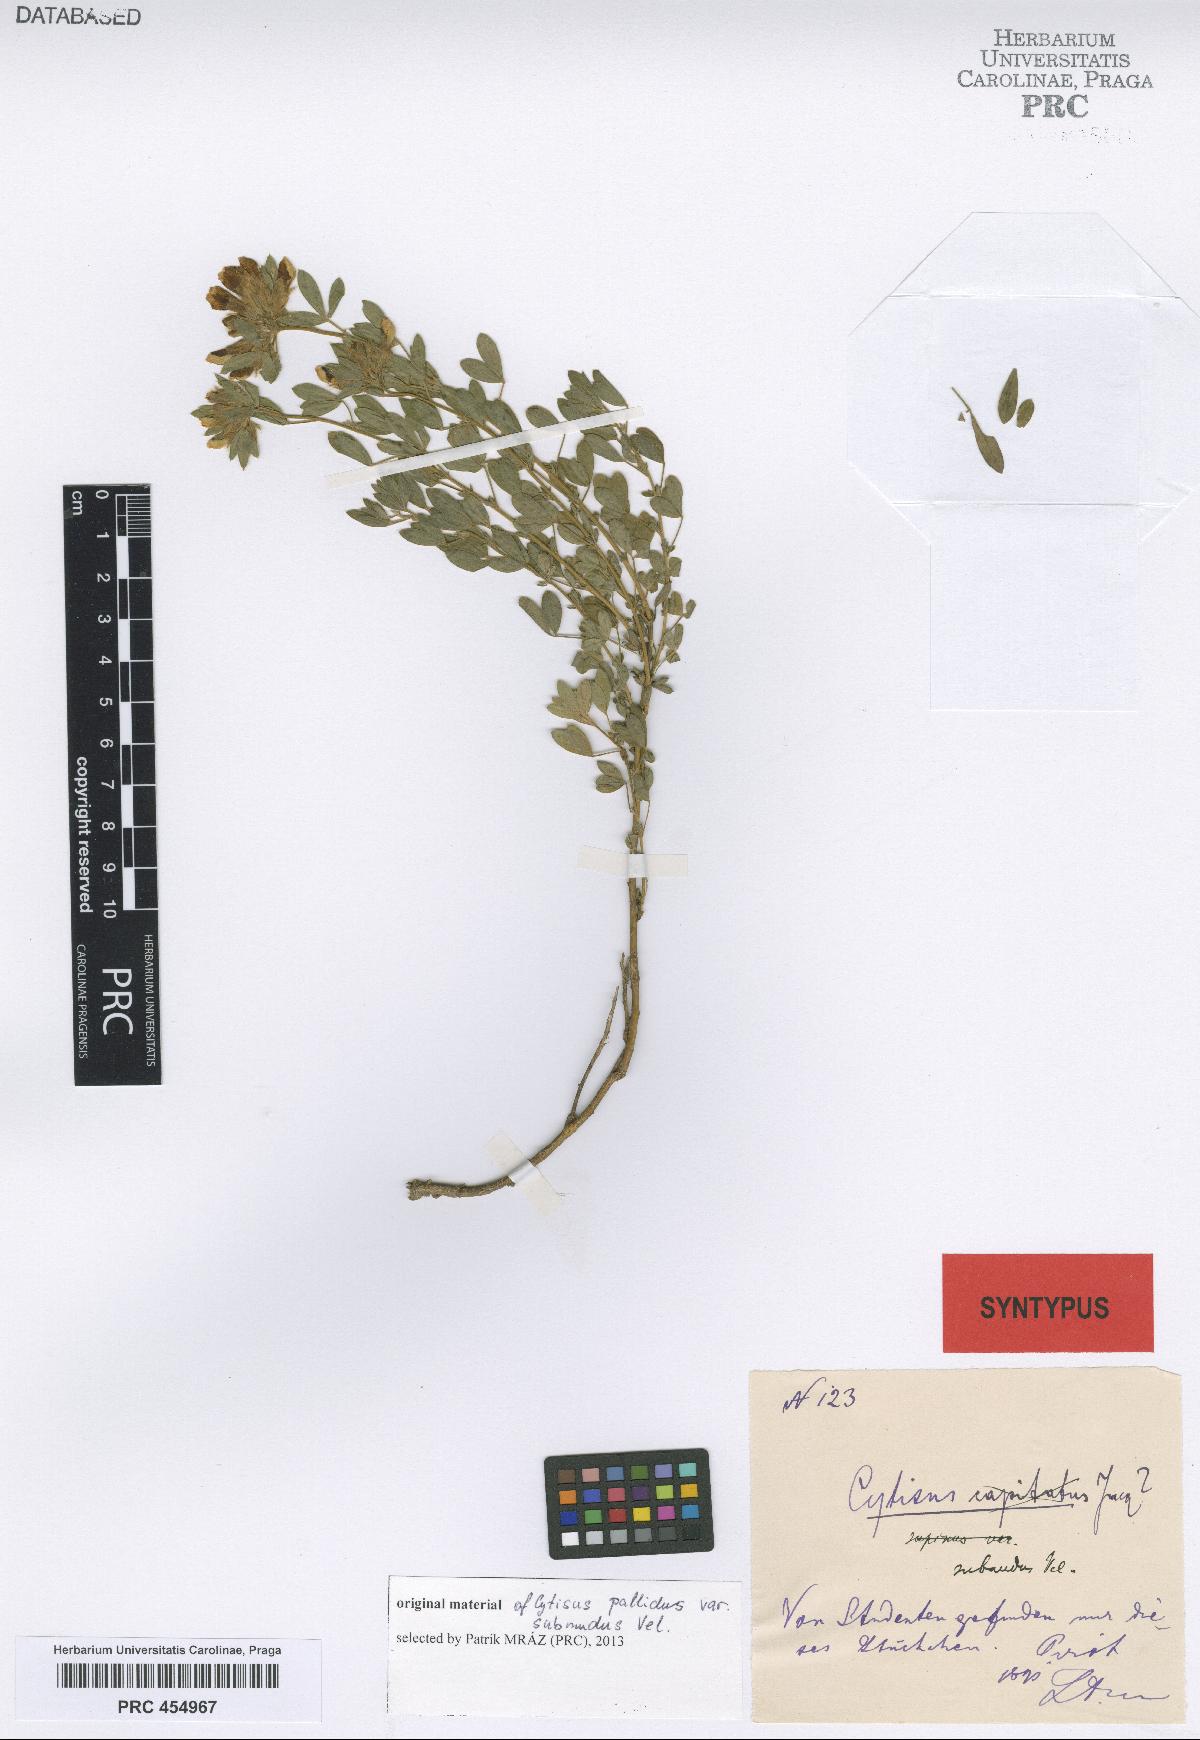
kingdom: Plantae
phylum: Tracheophyta
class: Magnoliopsida
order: Fabales
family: Fabaceae
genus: Chamaecytisus
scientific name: Chamaecytisus banaticus
